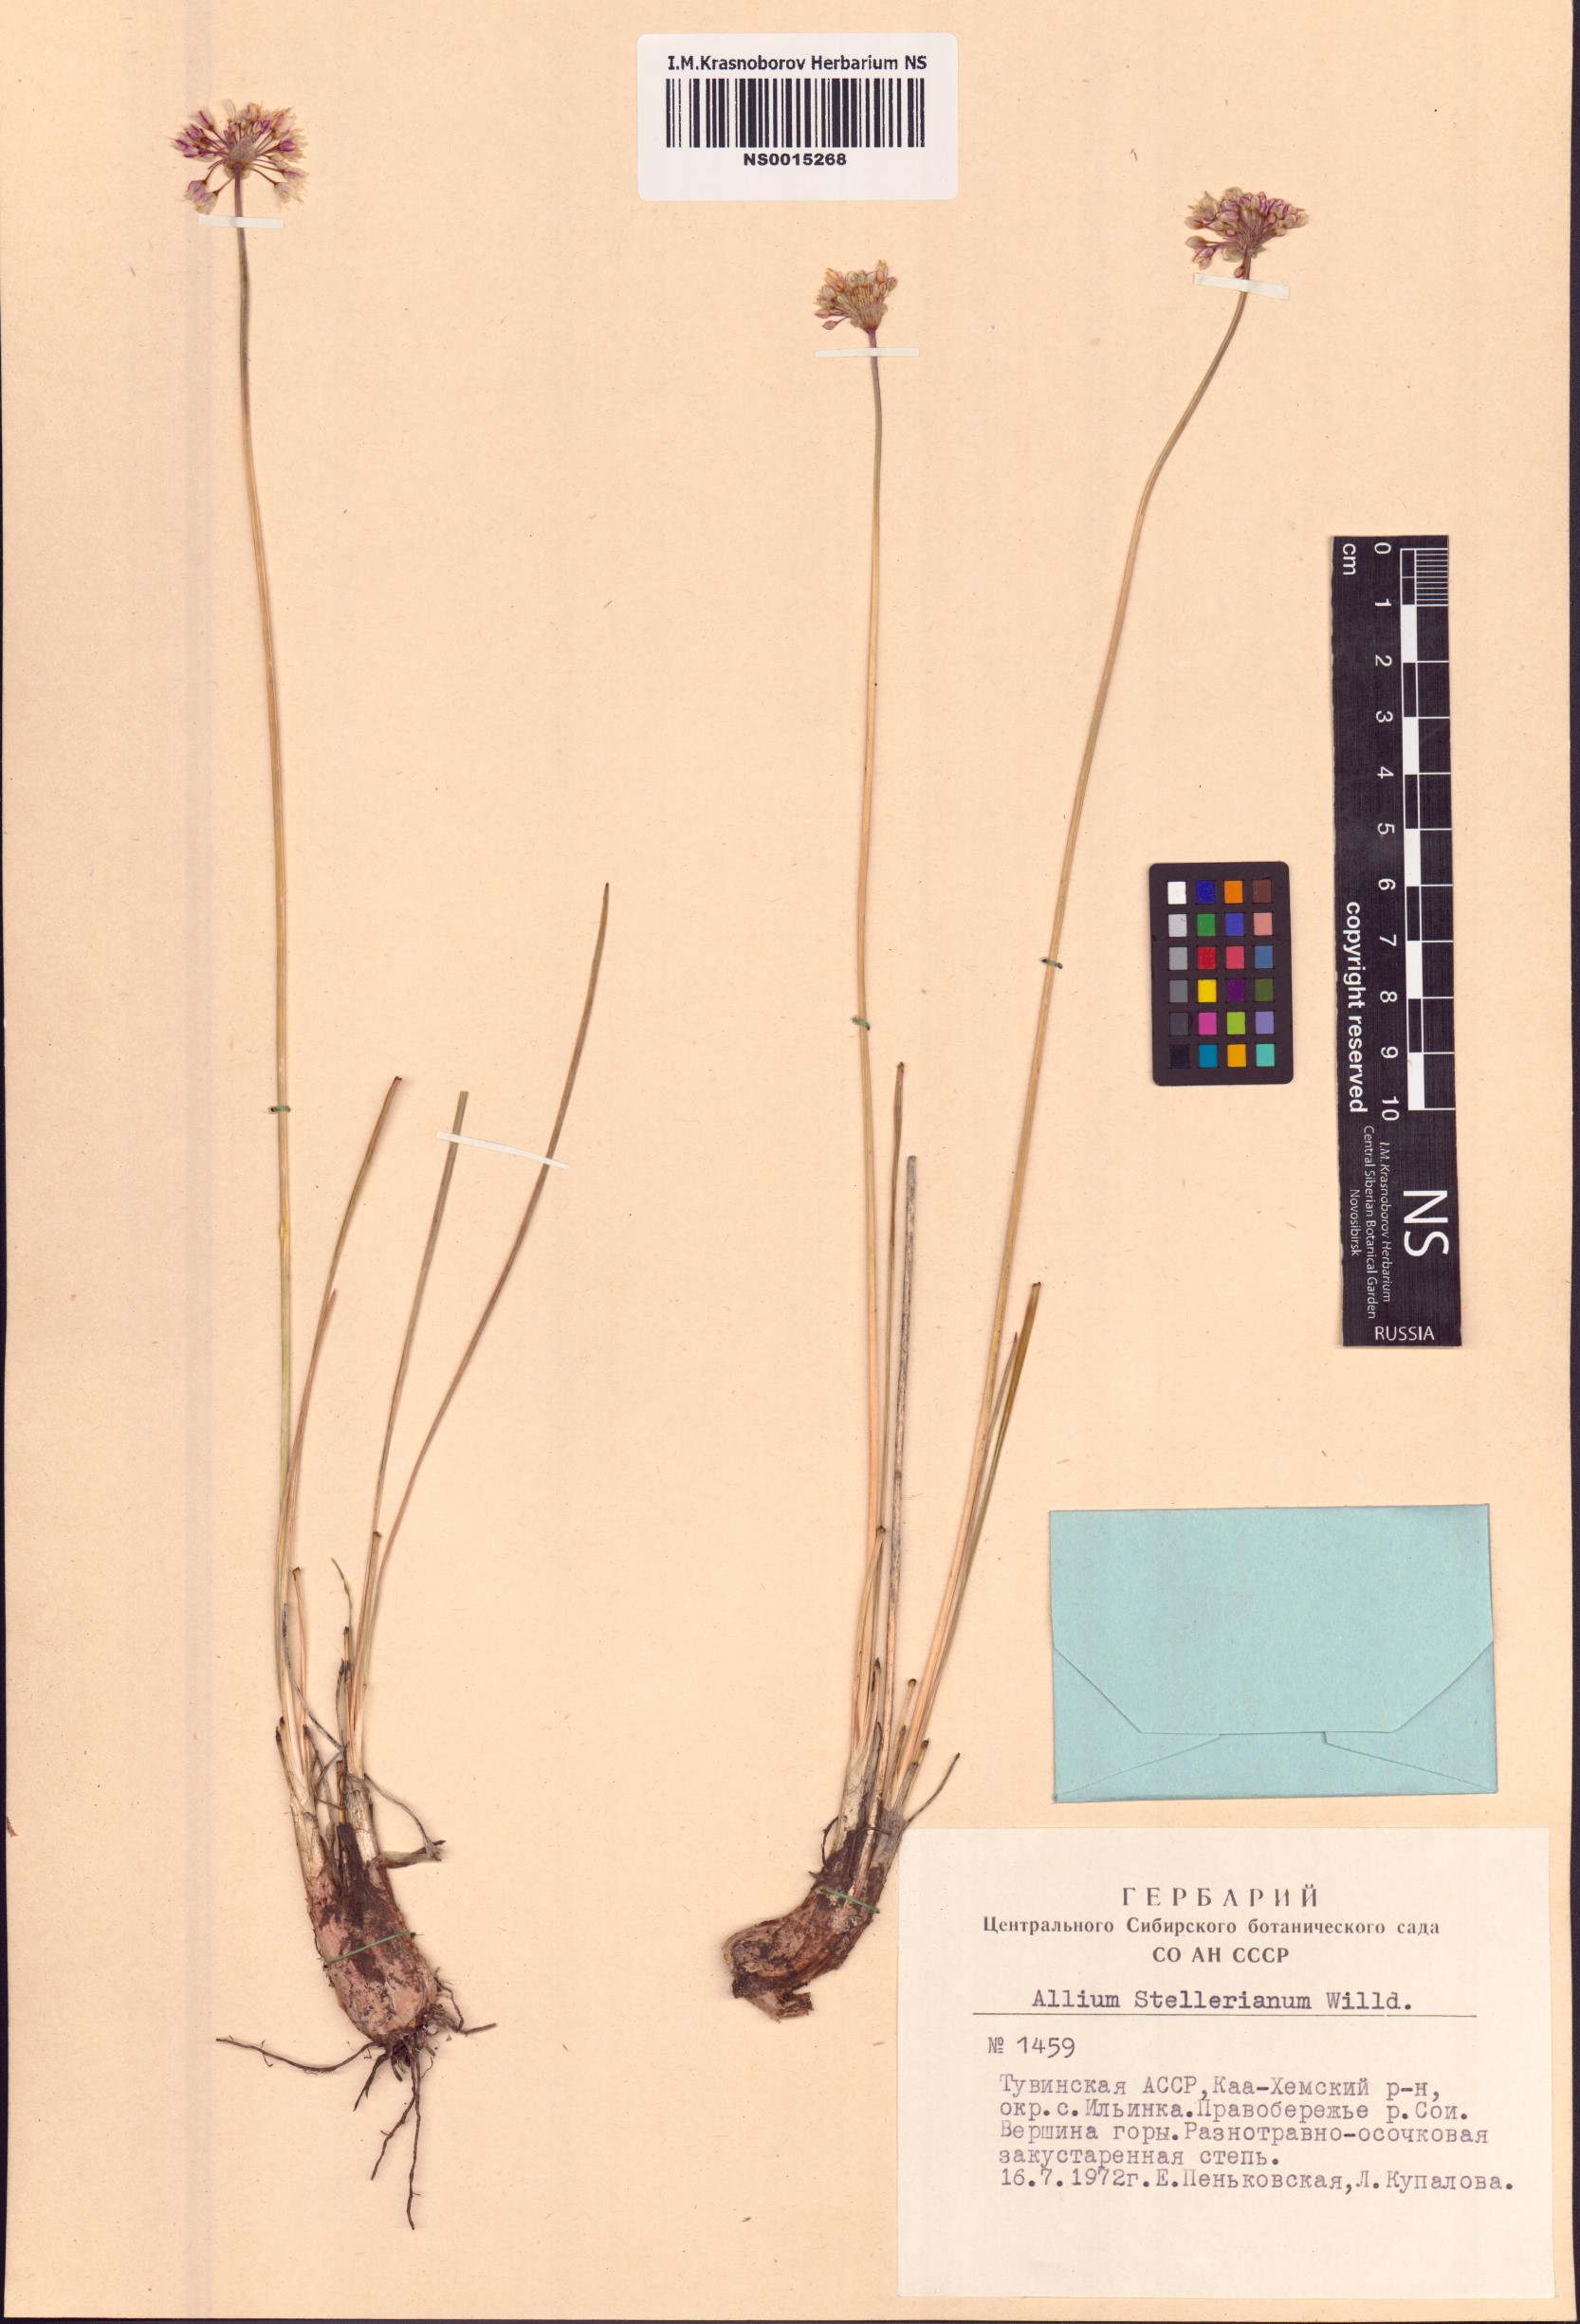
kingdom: Plantae
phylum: Tracheophyta
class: Liliopsida
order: Asparagales
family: Amaryllidaceae
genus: Allium
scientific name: Allium stellerianum
